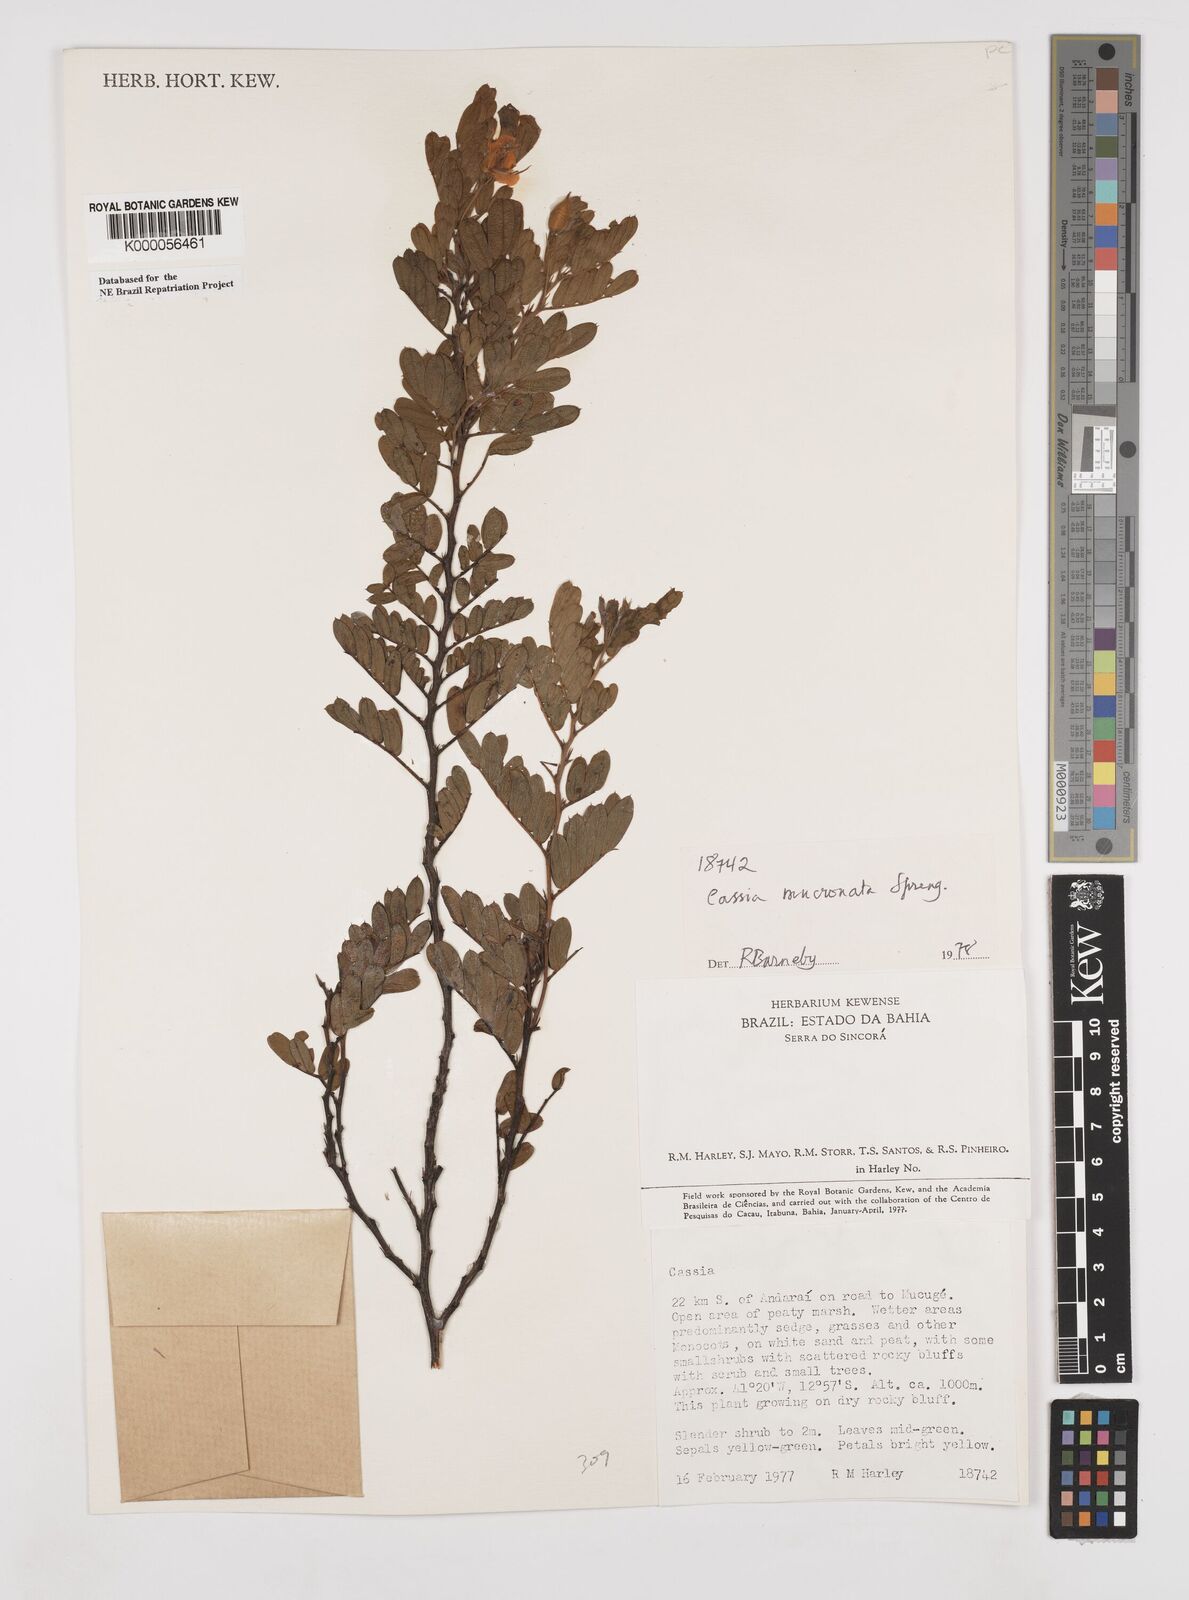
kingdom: Plantae
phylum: Tracheophyta
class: Magnoliopsida
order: Fabales
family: Fabaceae
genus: Chamaecrista
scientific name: Chamaecrista mucronata
